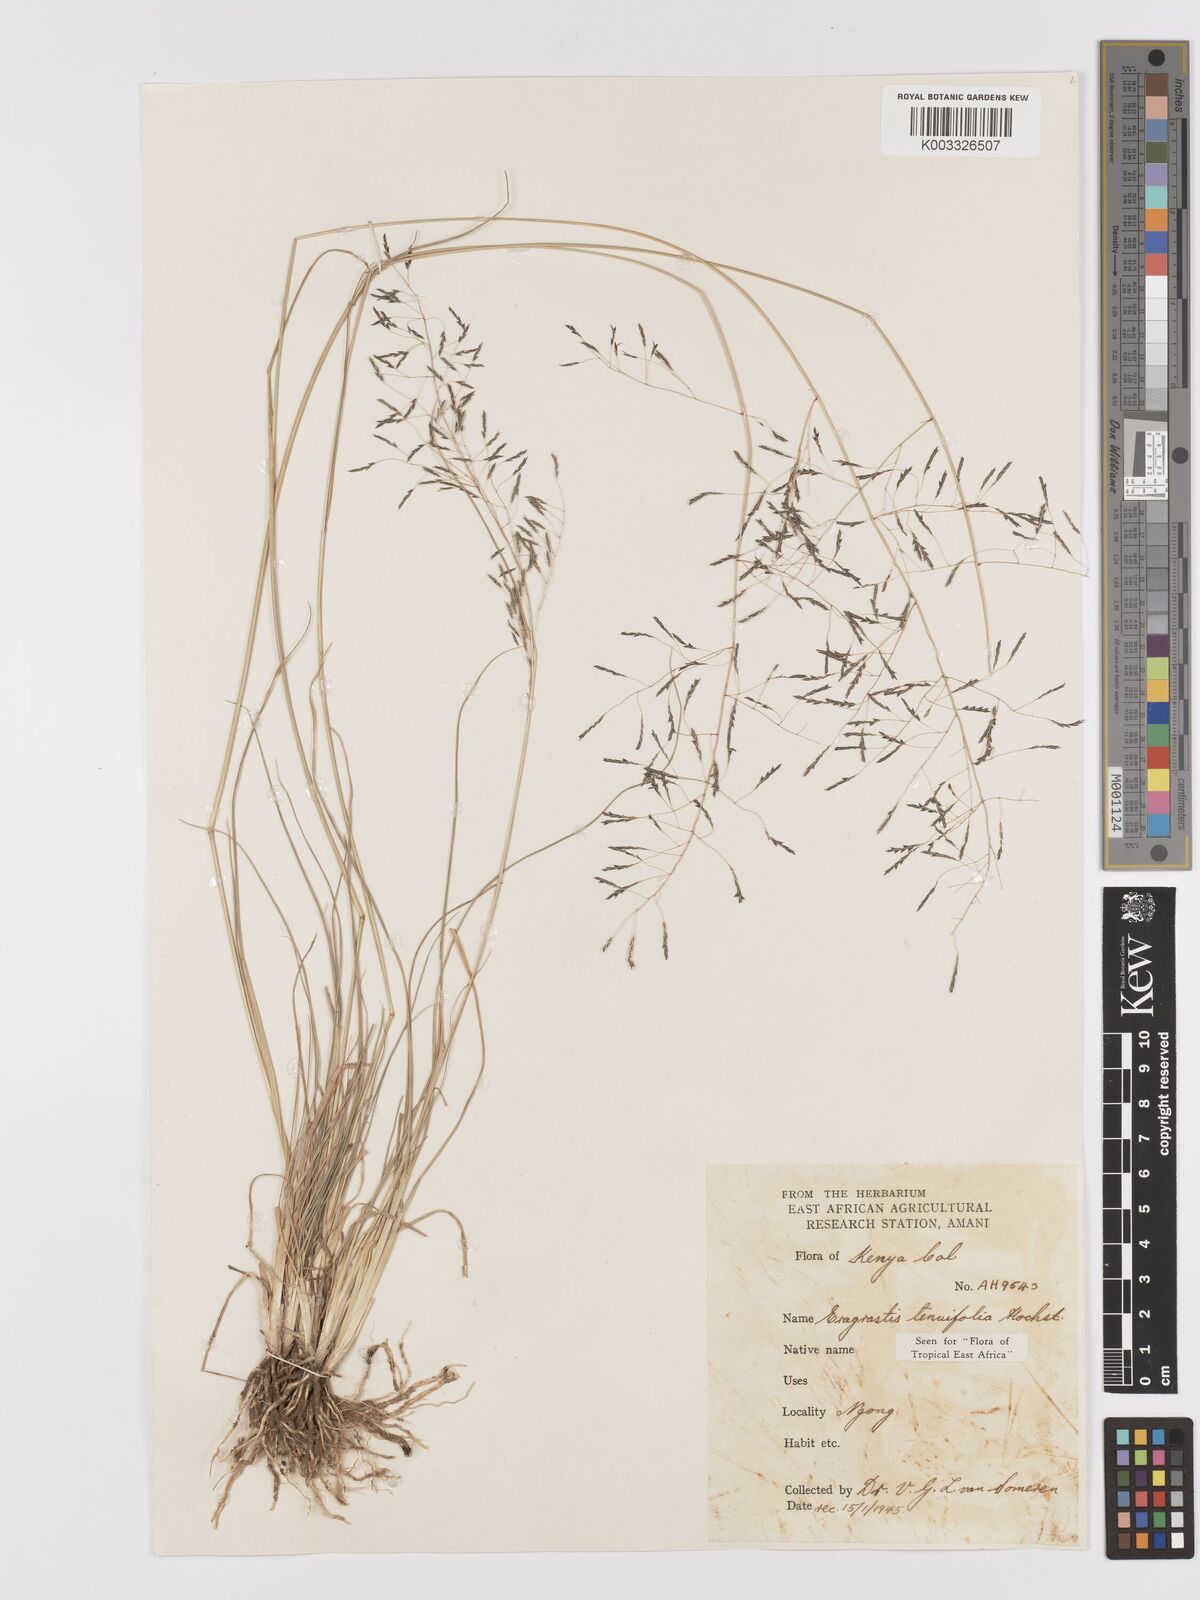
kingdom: Plantae
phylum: Tracheophyta
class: Liliopsida
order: Poales
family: Poaceae
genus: Eragrostis
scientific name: Eragrostis tenuifolia
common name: Elastic grass
